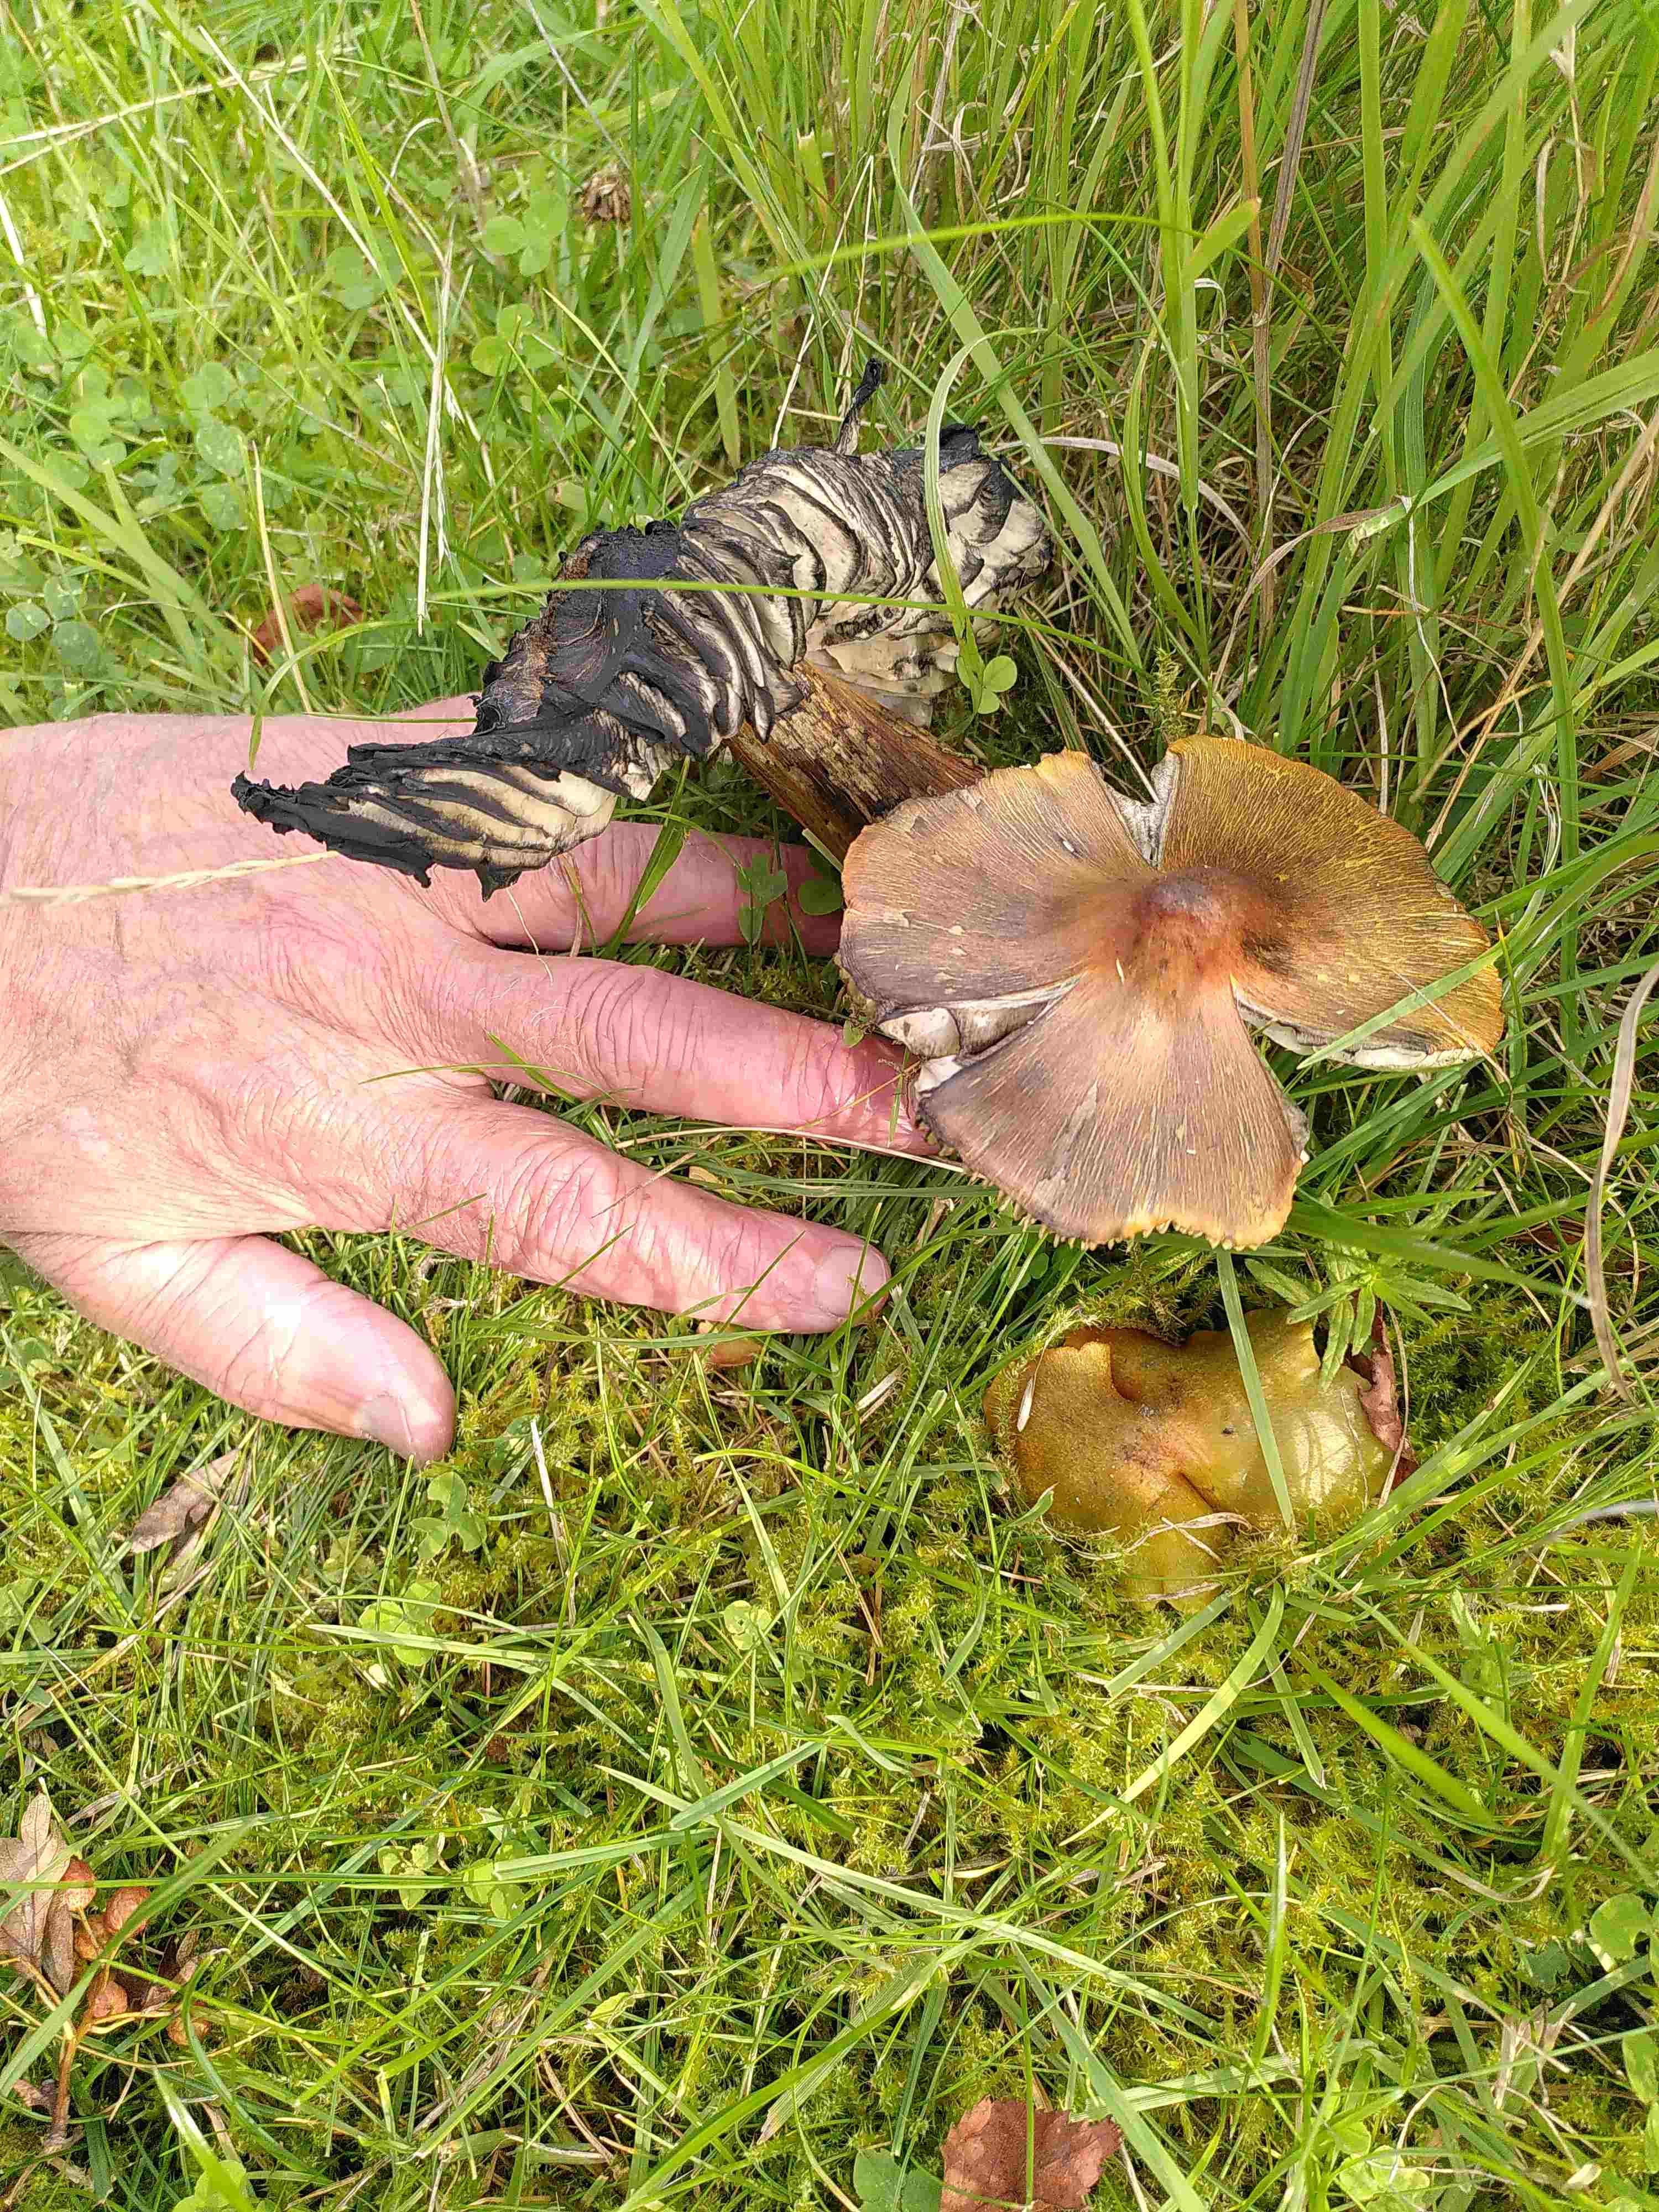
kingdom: Fungi
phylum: Basidiomycota
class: Agaricomycetes
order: Agaricales
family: Hygrophoraceae
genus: Hygrocybe
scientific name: Hygrocybe conica
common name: kegle-vokshat
